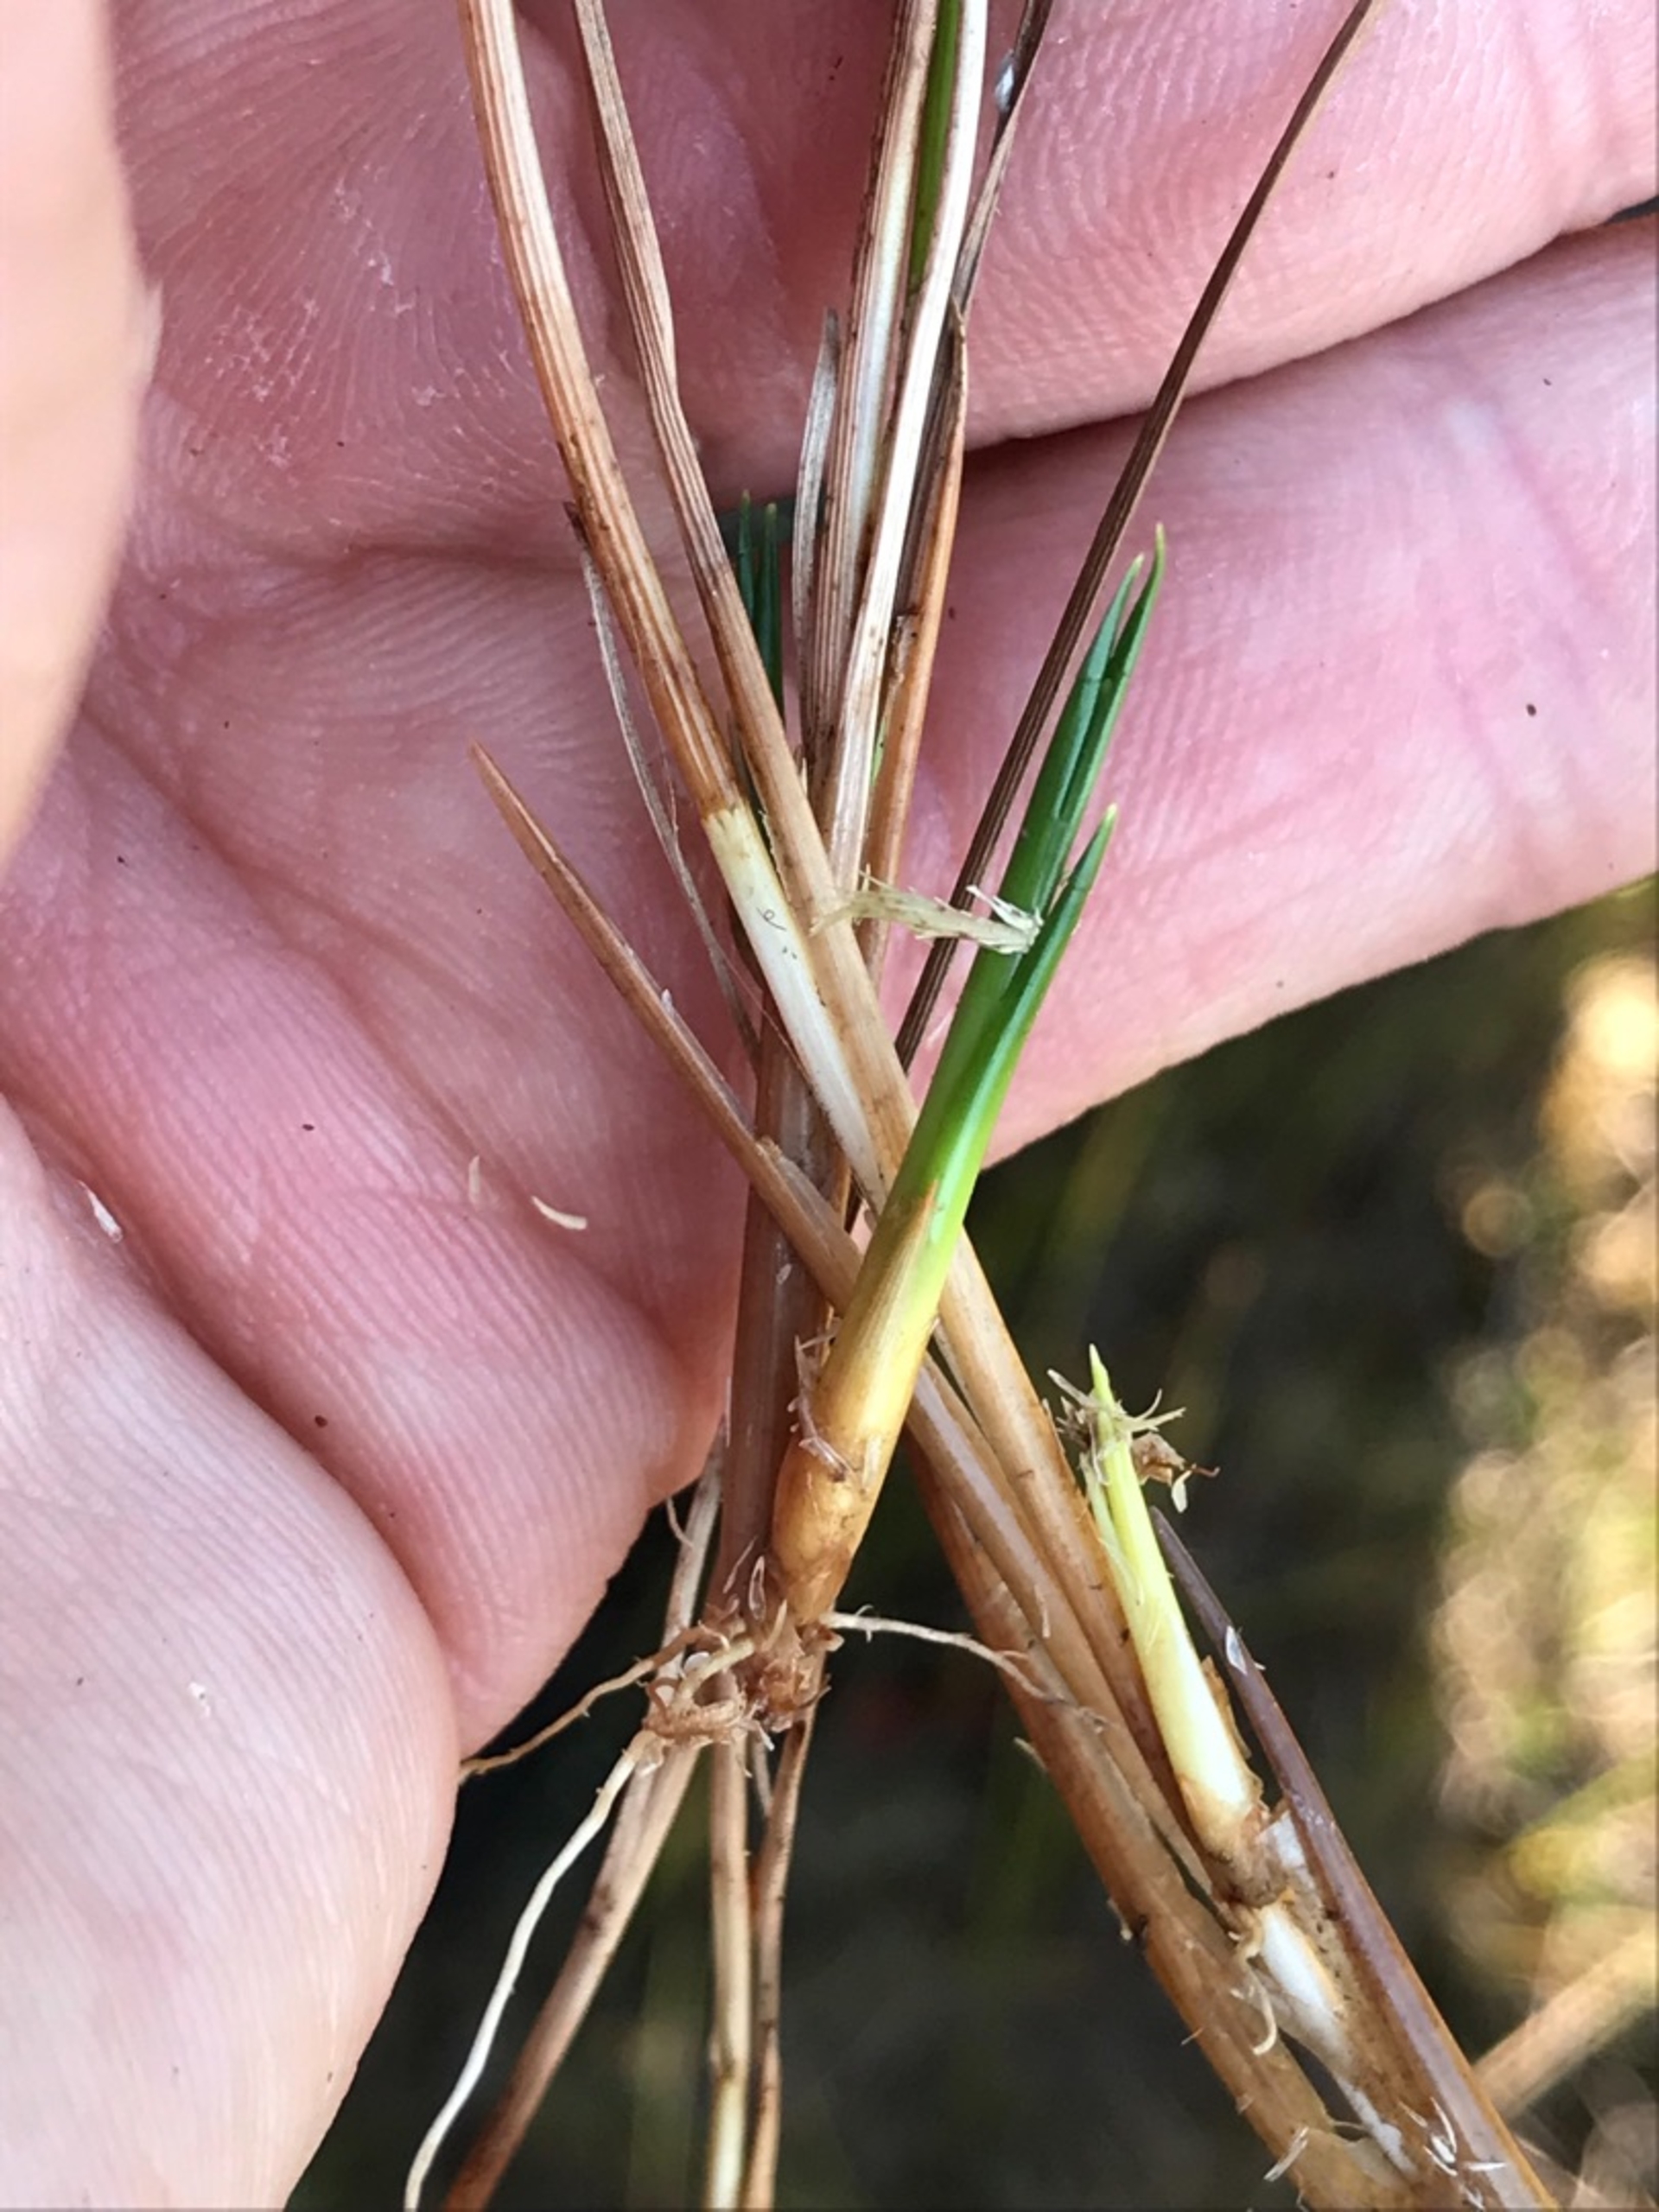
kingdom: Plantae
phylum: Tracheophyta
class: Liliopsida
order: Poales
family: Cyperaceae
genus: Rhynchospora
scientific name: Rhynchospora alba
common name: Hvid næbfrø
